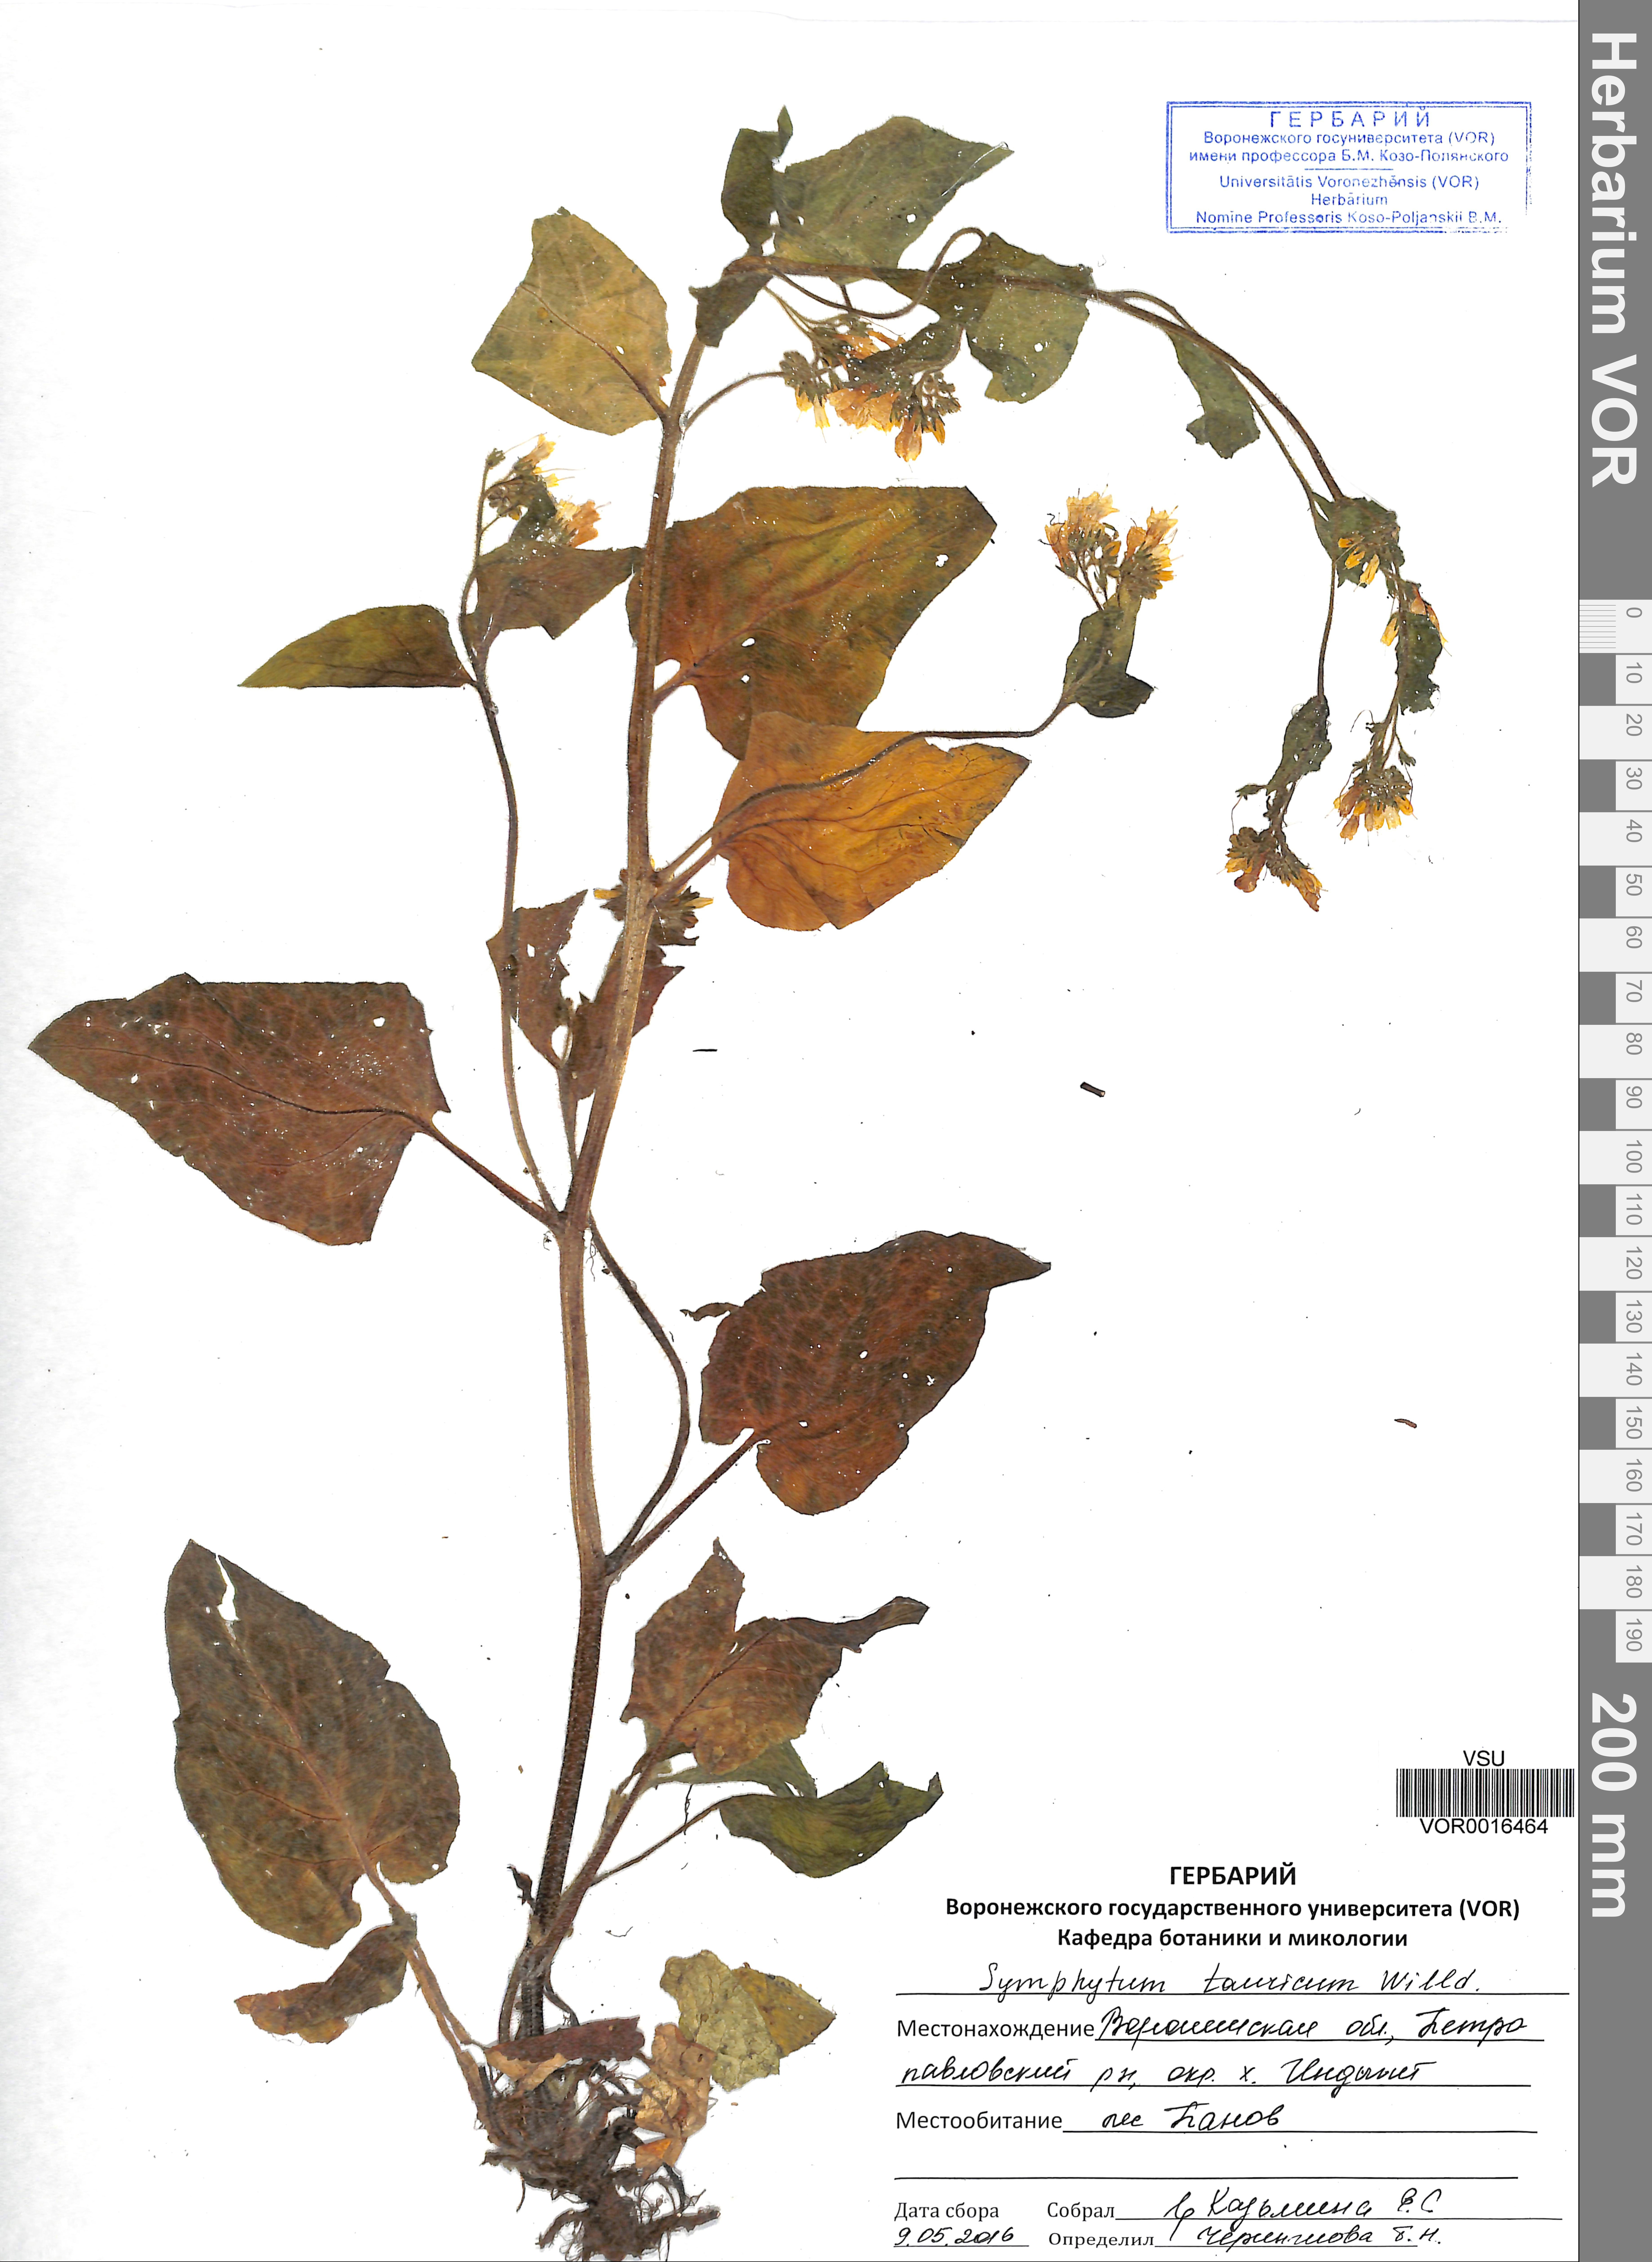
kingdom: Plantae
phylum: Tracheophyta
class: Magnoliopsida
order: Boraginales
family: Boraginaceae
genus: Symphytum
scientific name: Symphytum tauricum
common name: Crimean comfrey
